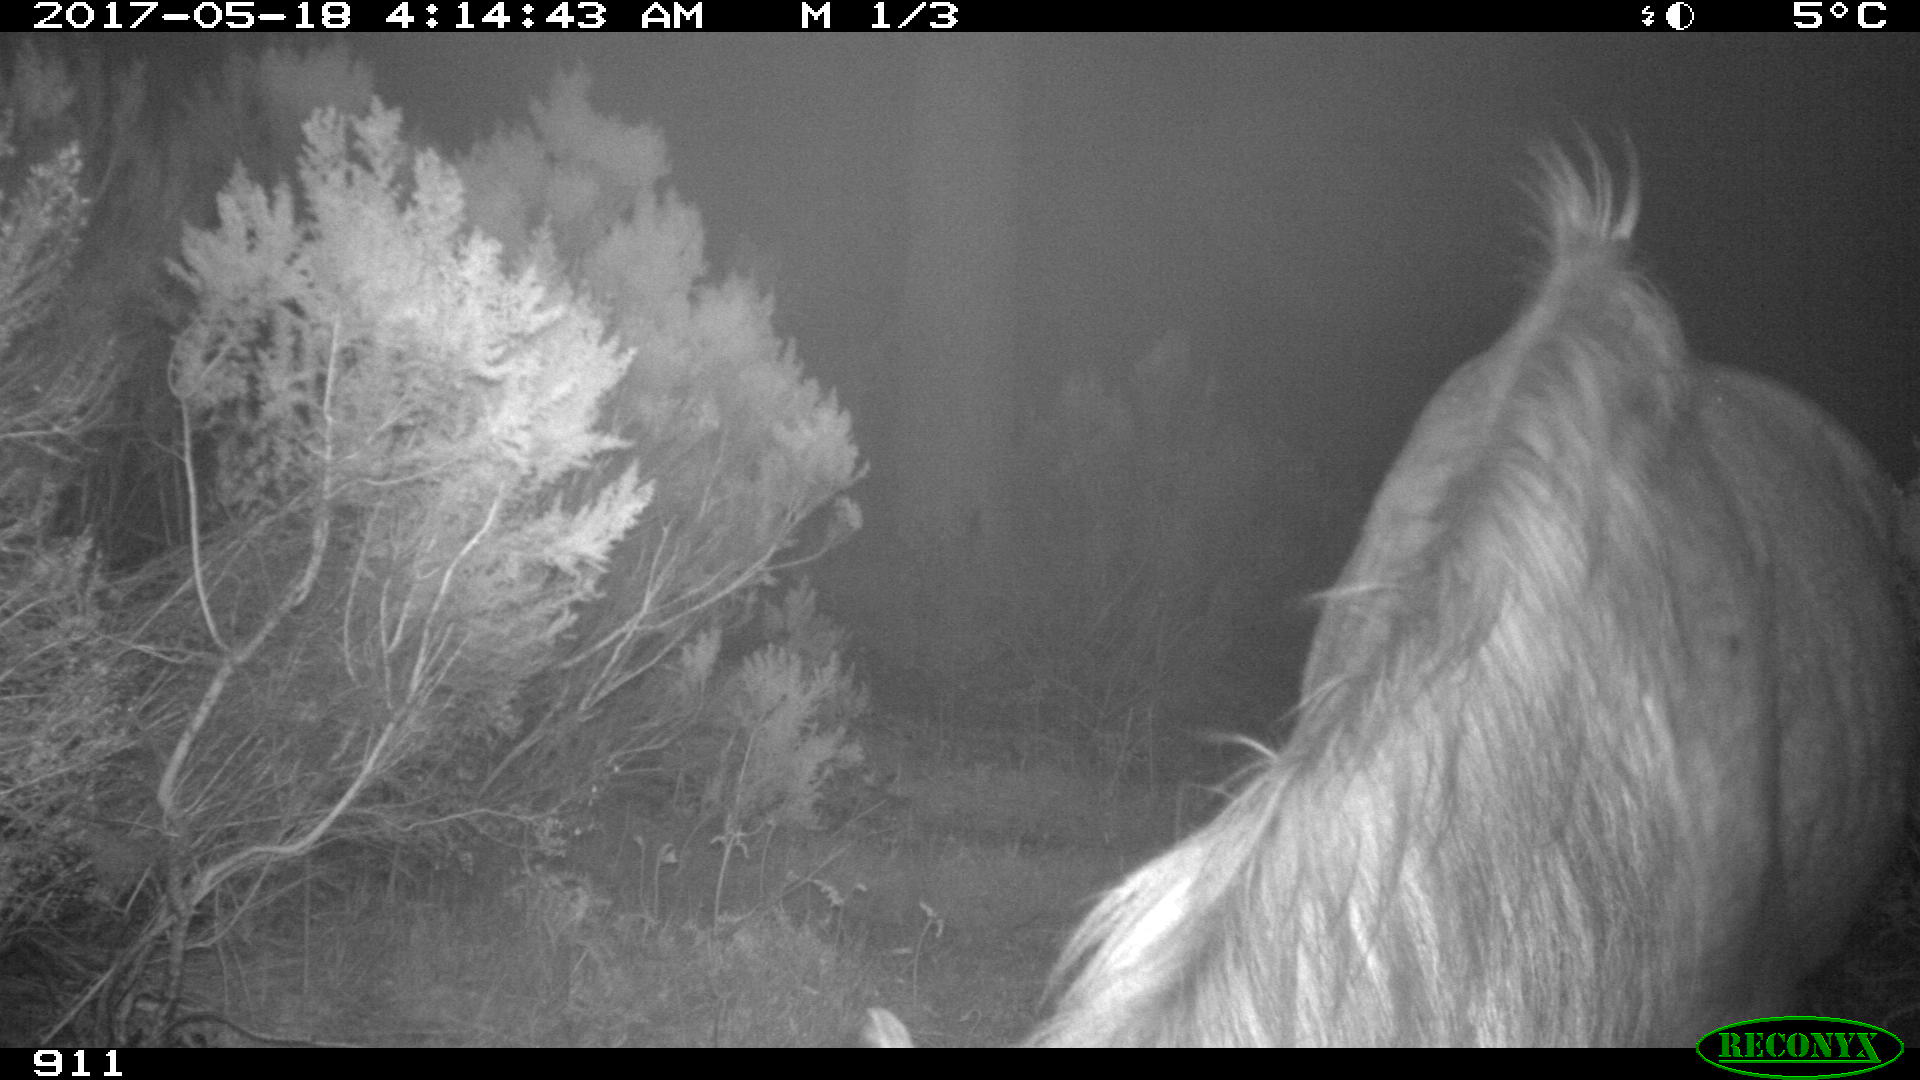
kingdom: Animalia
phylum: Chordata
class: Mammalia
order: Perissodactyla
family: Equidae
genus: Equus
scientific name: Equus caballus
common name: Horse
